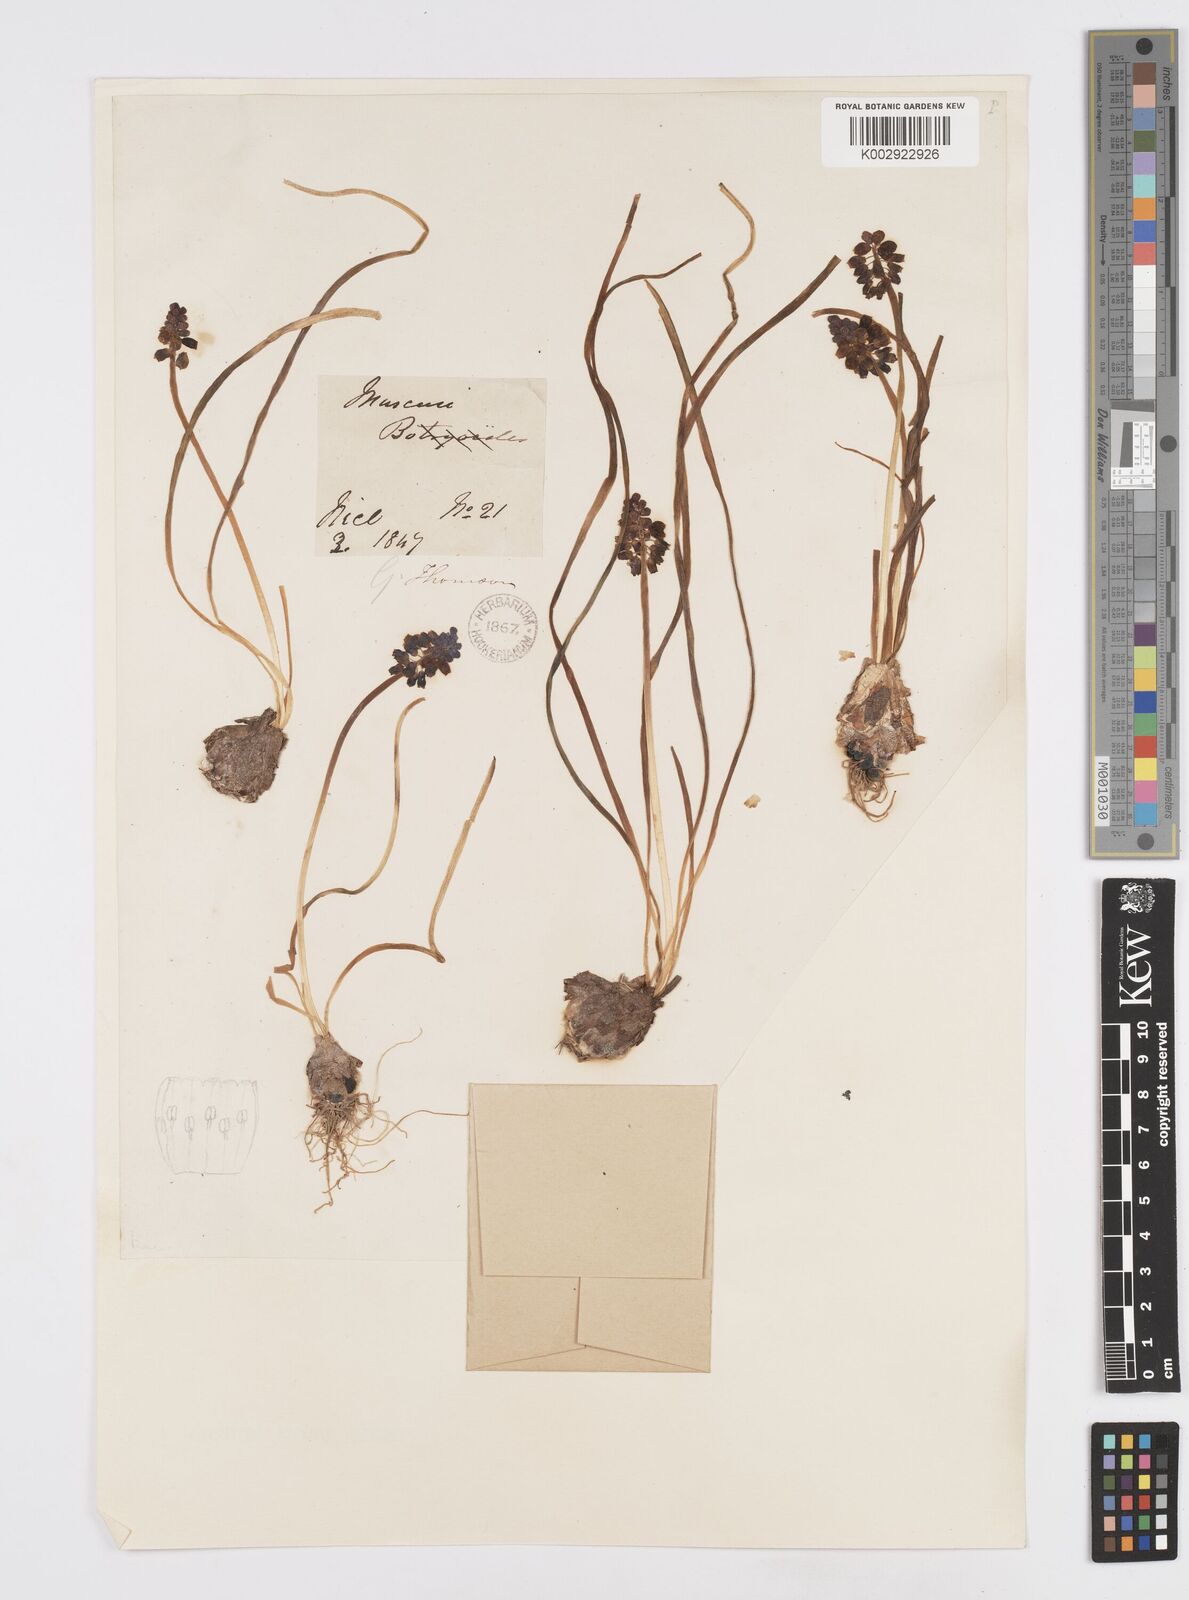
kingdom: Plantae
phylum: Tracheophyta
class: Liliopsida
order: Asparagales
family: Asparagaceae
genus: Muscarimia
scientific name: Muscarimia muscari
